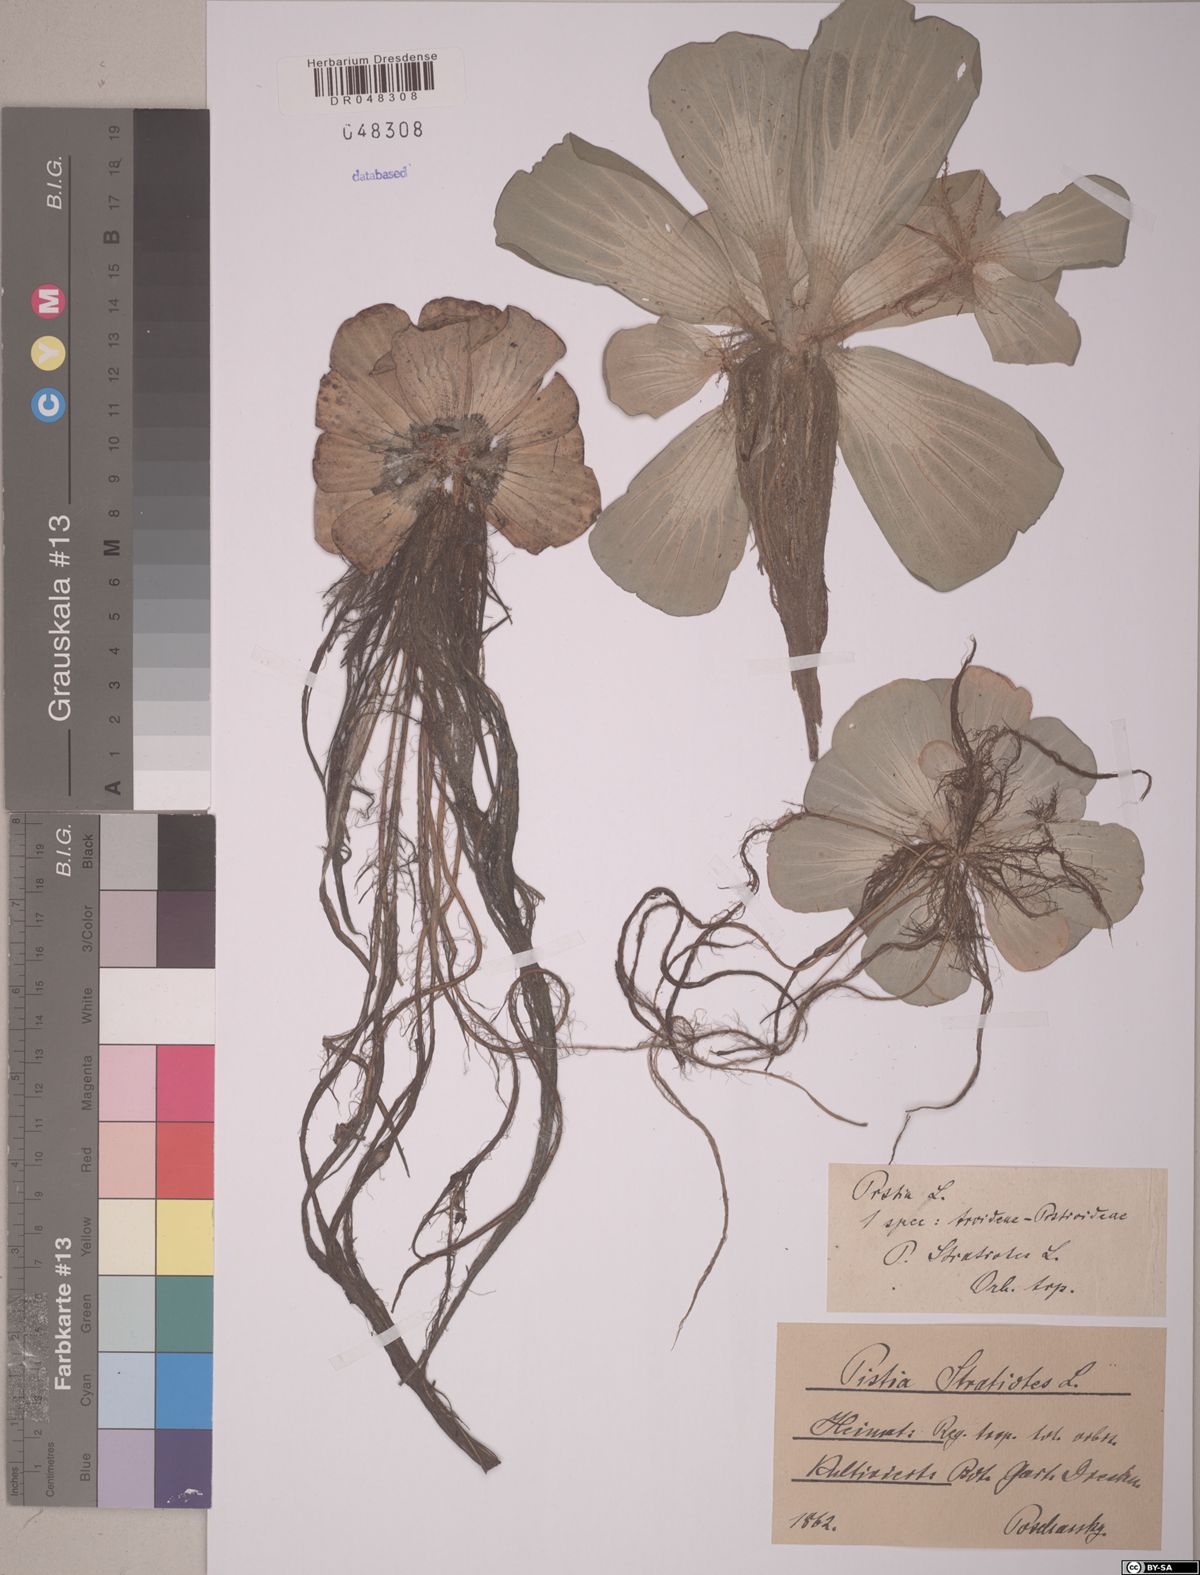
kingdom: Plantae
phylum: Tracheophyta
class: Liliopsida
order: Alismatales
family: Araceae
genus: Pistia
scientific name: Pistia stratiotes
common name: Water lettuce
